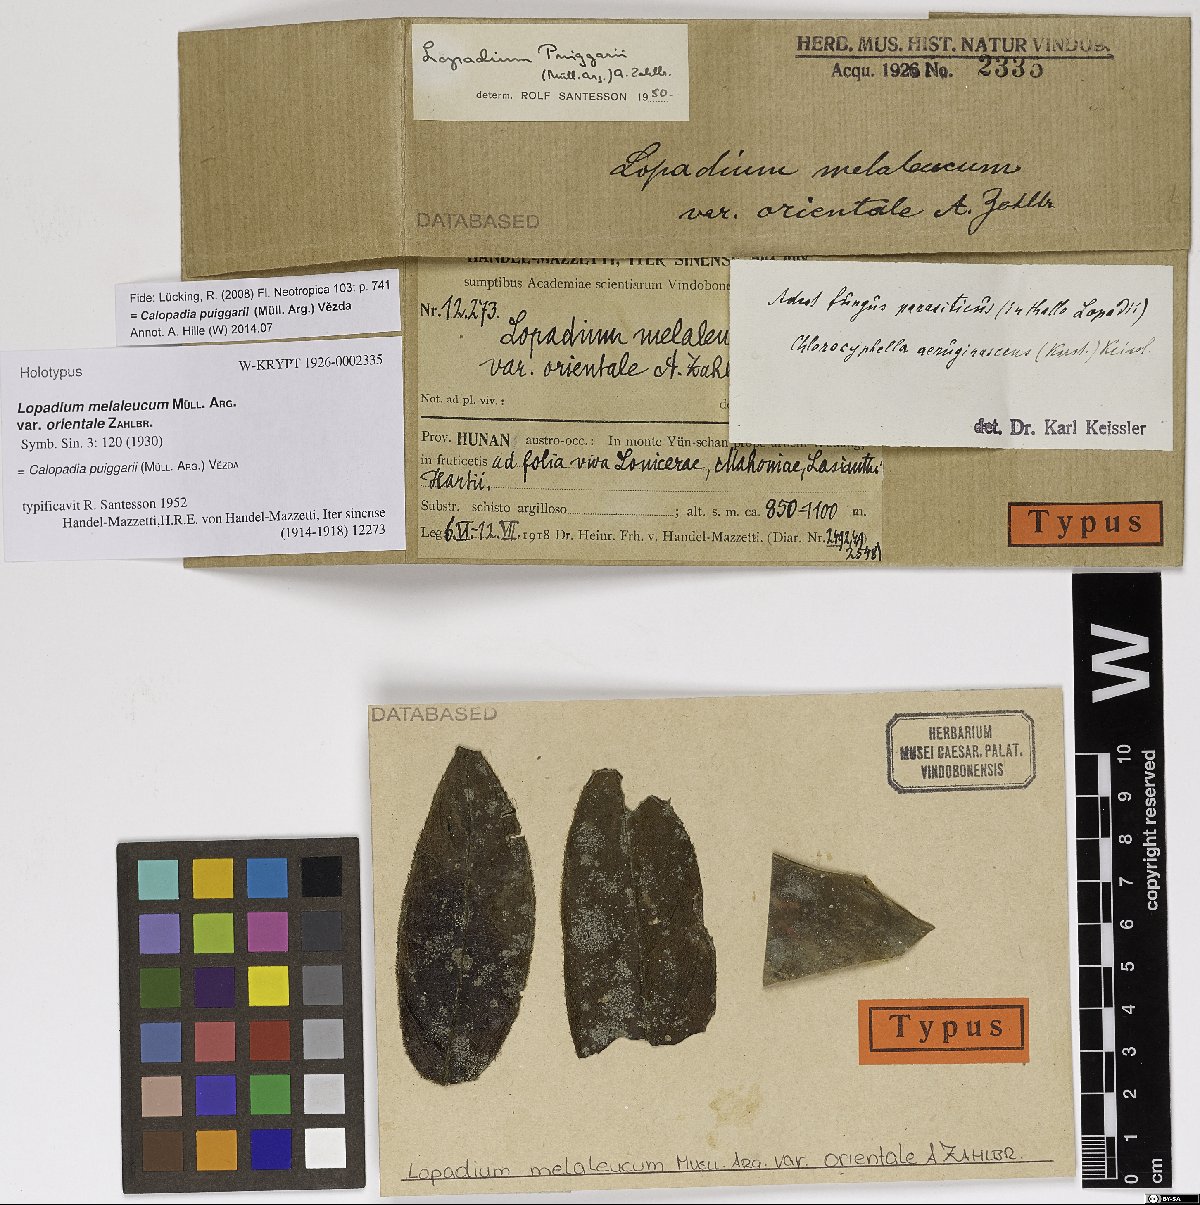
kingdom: Fungi
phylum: Ascomycota
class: Lecanoromycetes
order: Lecanorales
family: Pilocarpaceae
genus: Lopadium
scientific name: Lopadium melaleucum
